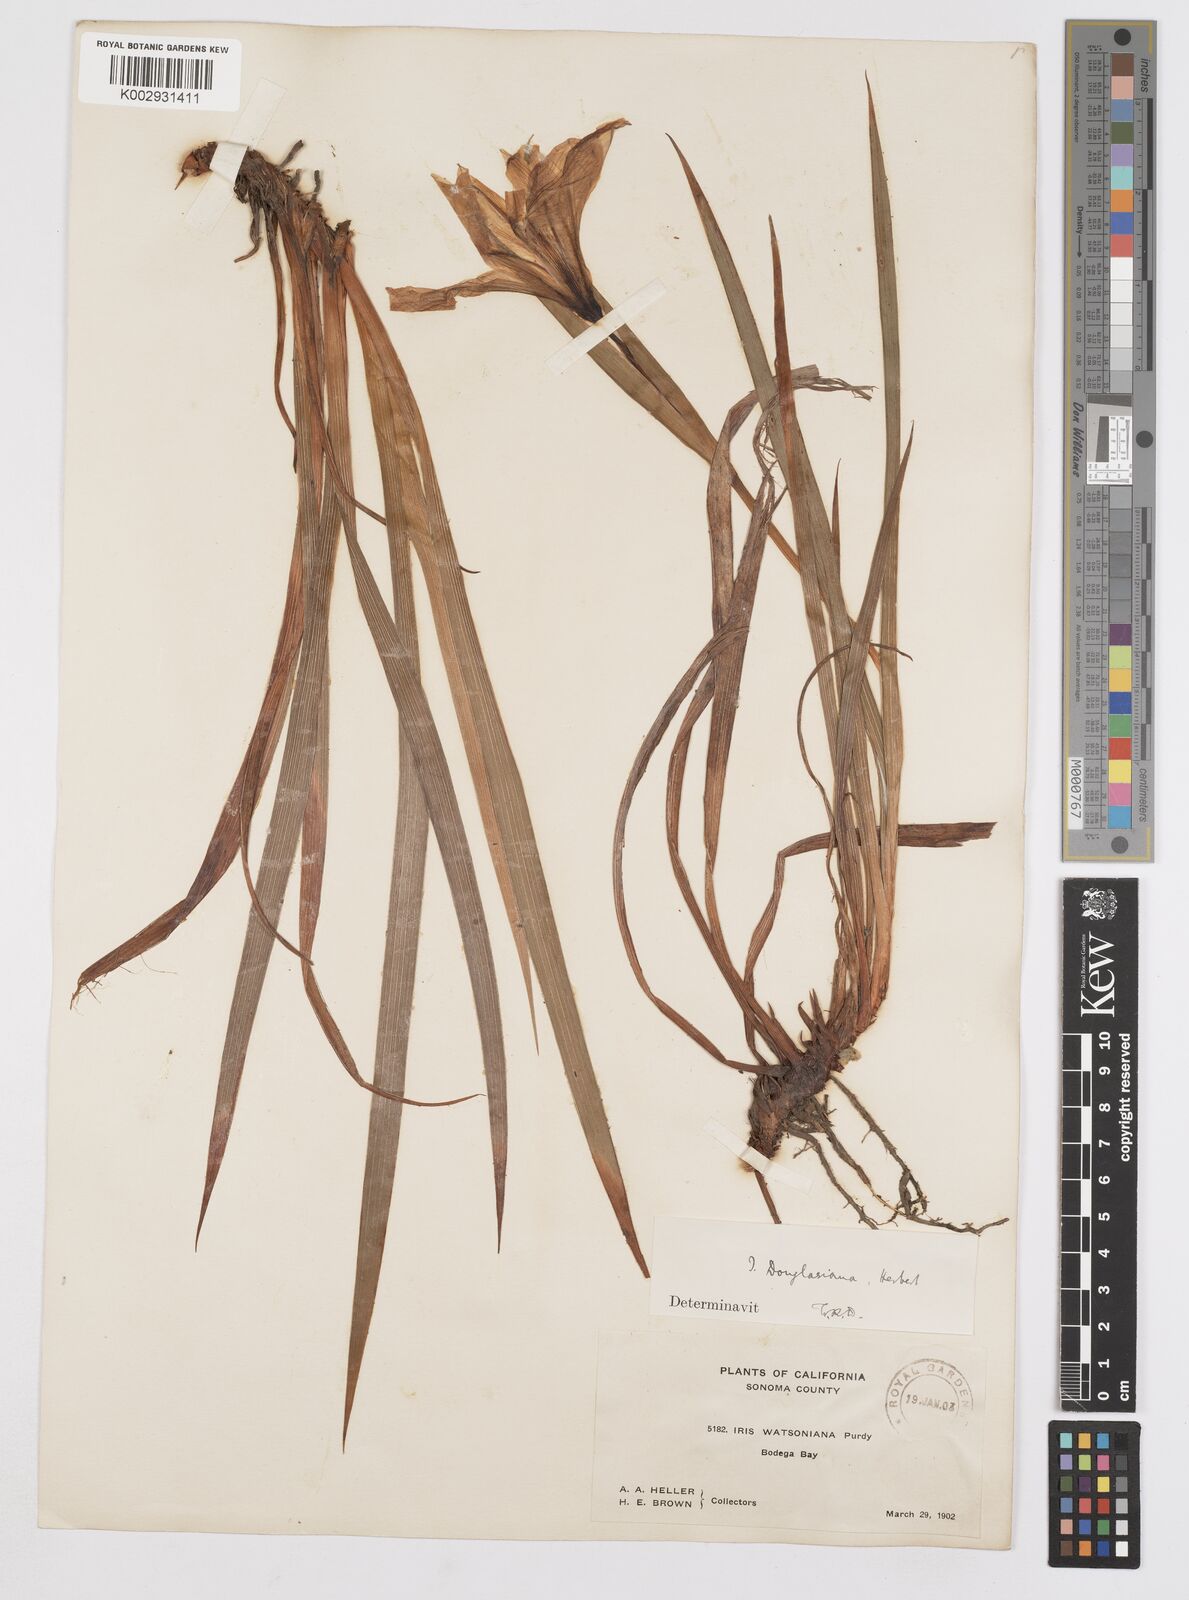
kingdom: Plantae
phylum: Tracheophyta
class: Liliopsida
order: Asparagales
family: Iridaceae
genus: Iris
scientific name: Iris douglasiana
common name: Marin iris
